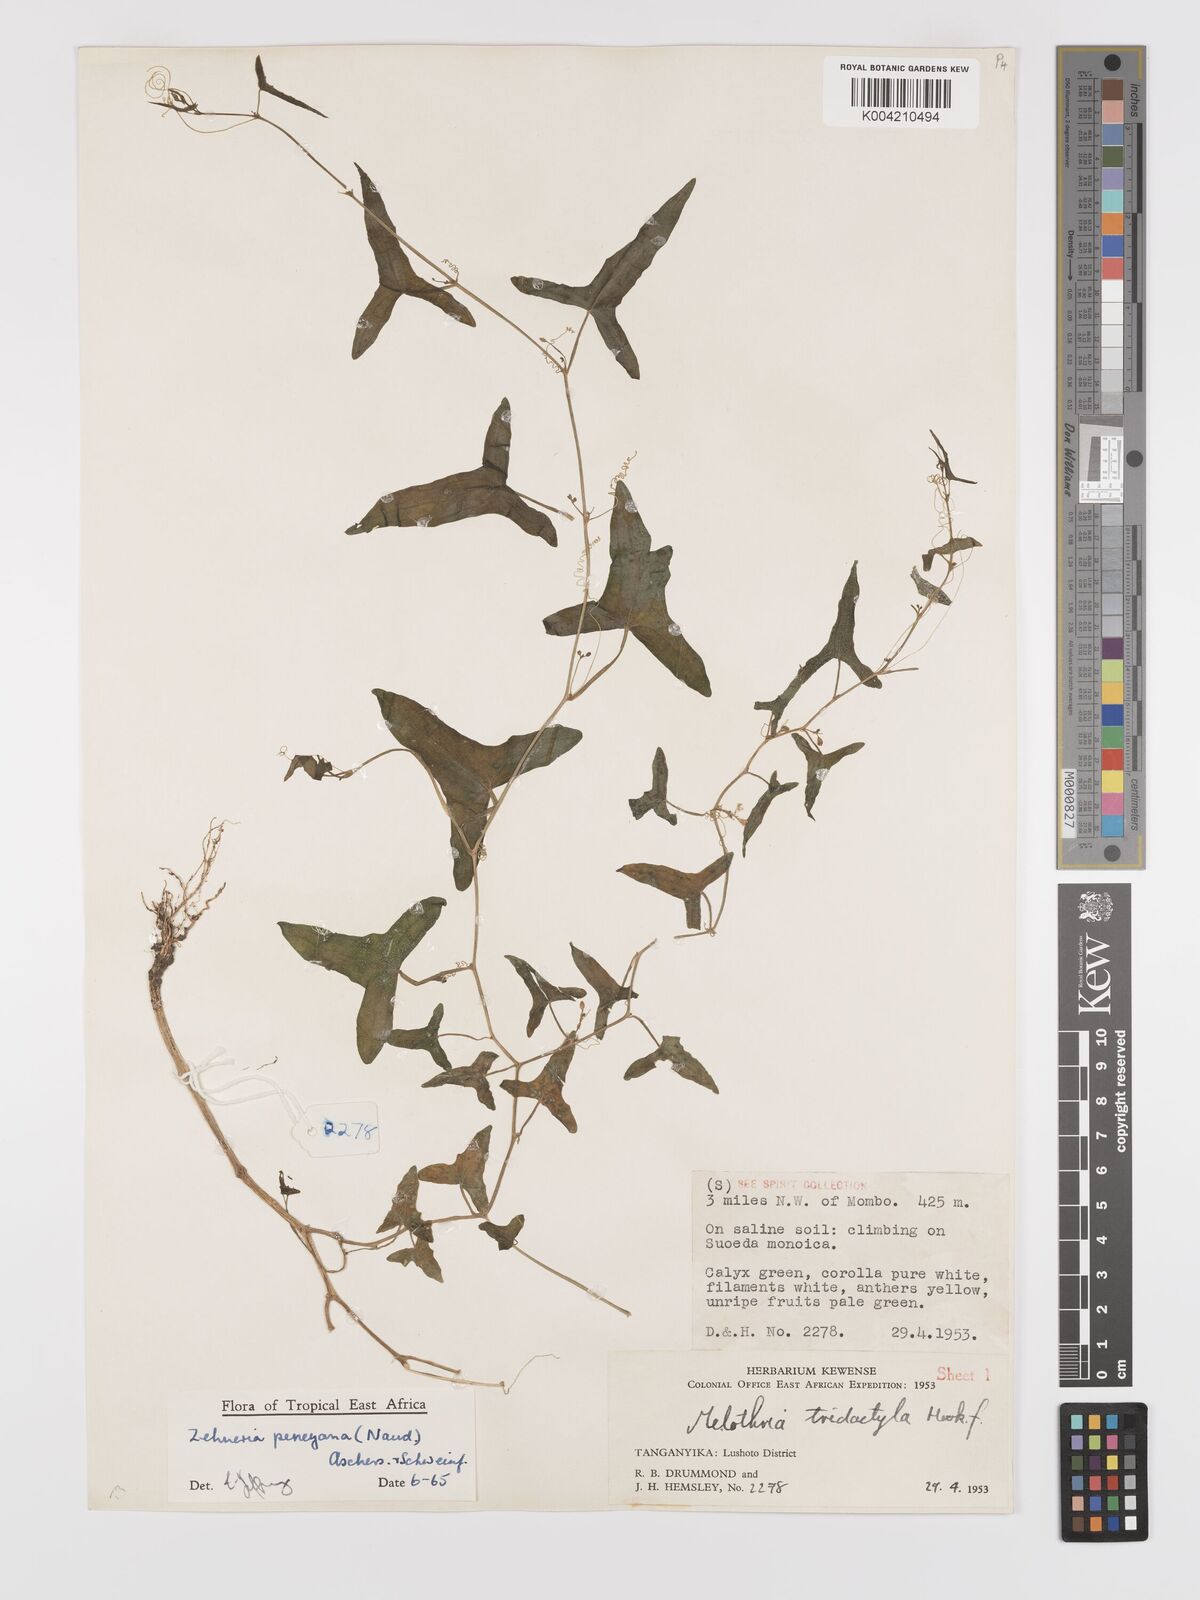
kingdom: Plantae
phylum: Tracheophyta
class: Magnoliopsida
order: Cucurbitales
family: Cucurbitaceae
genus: Zehneria
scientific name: Zehneria peneyana
